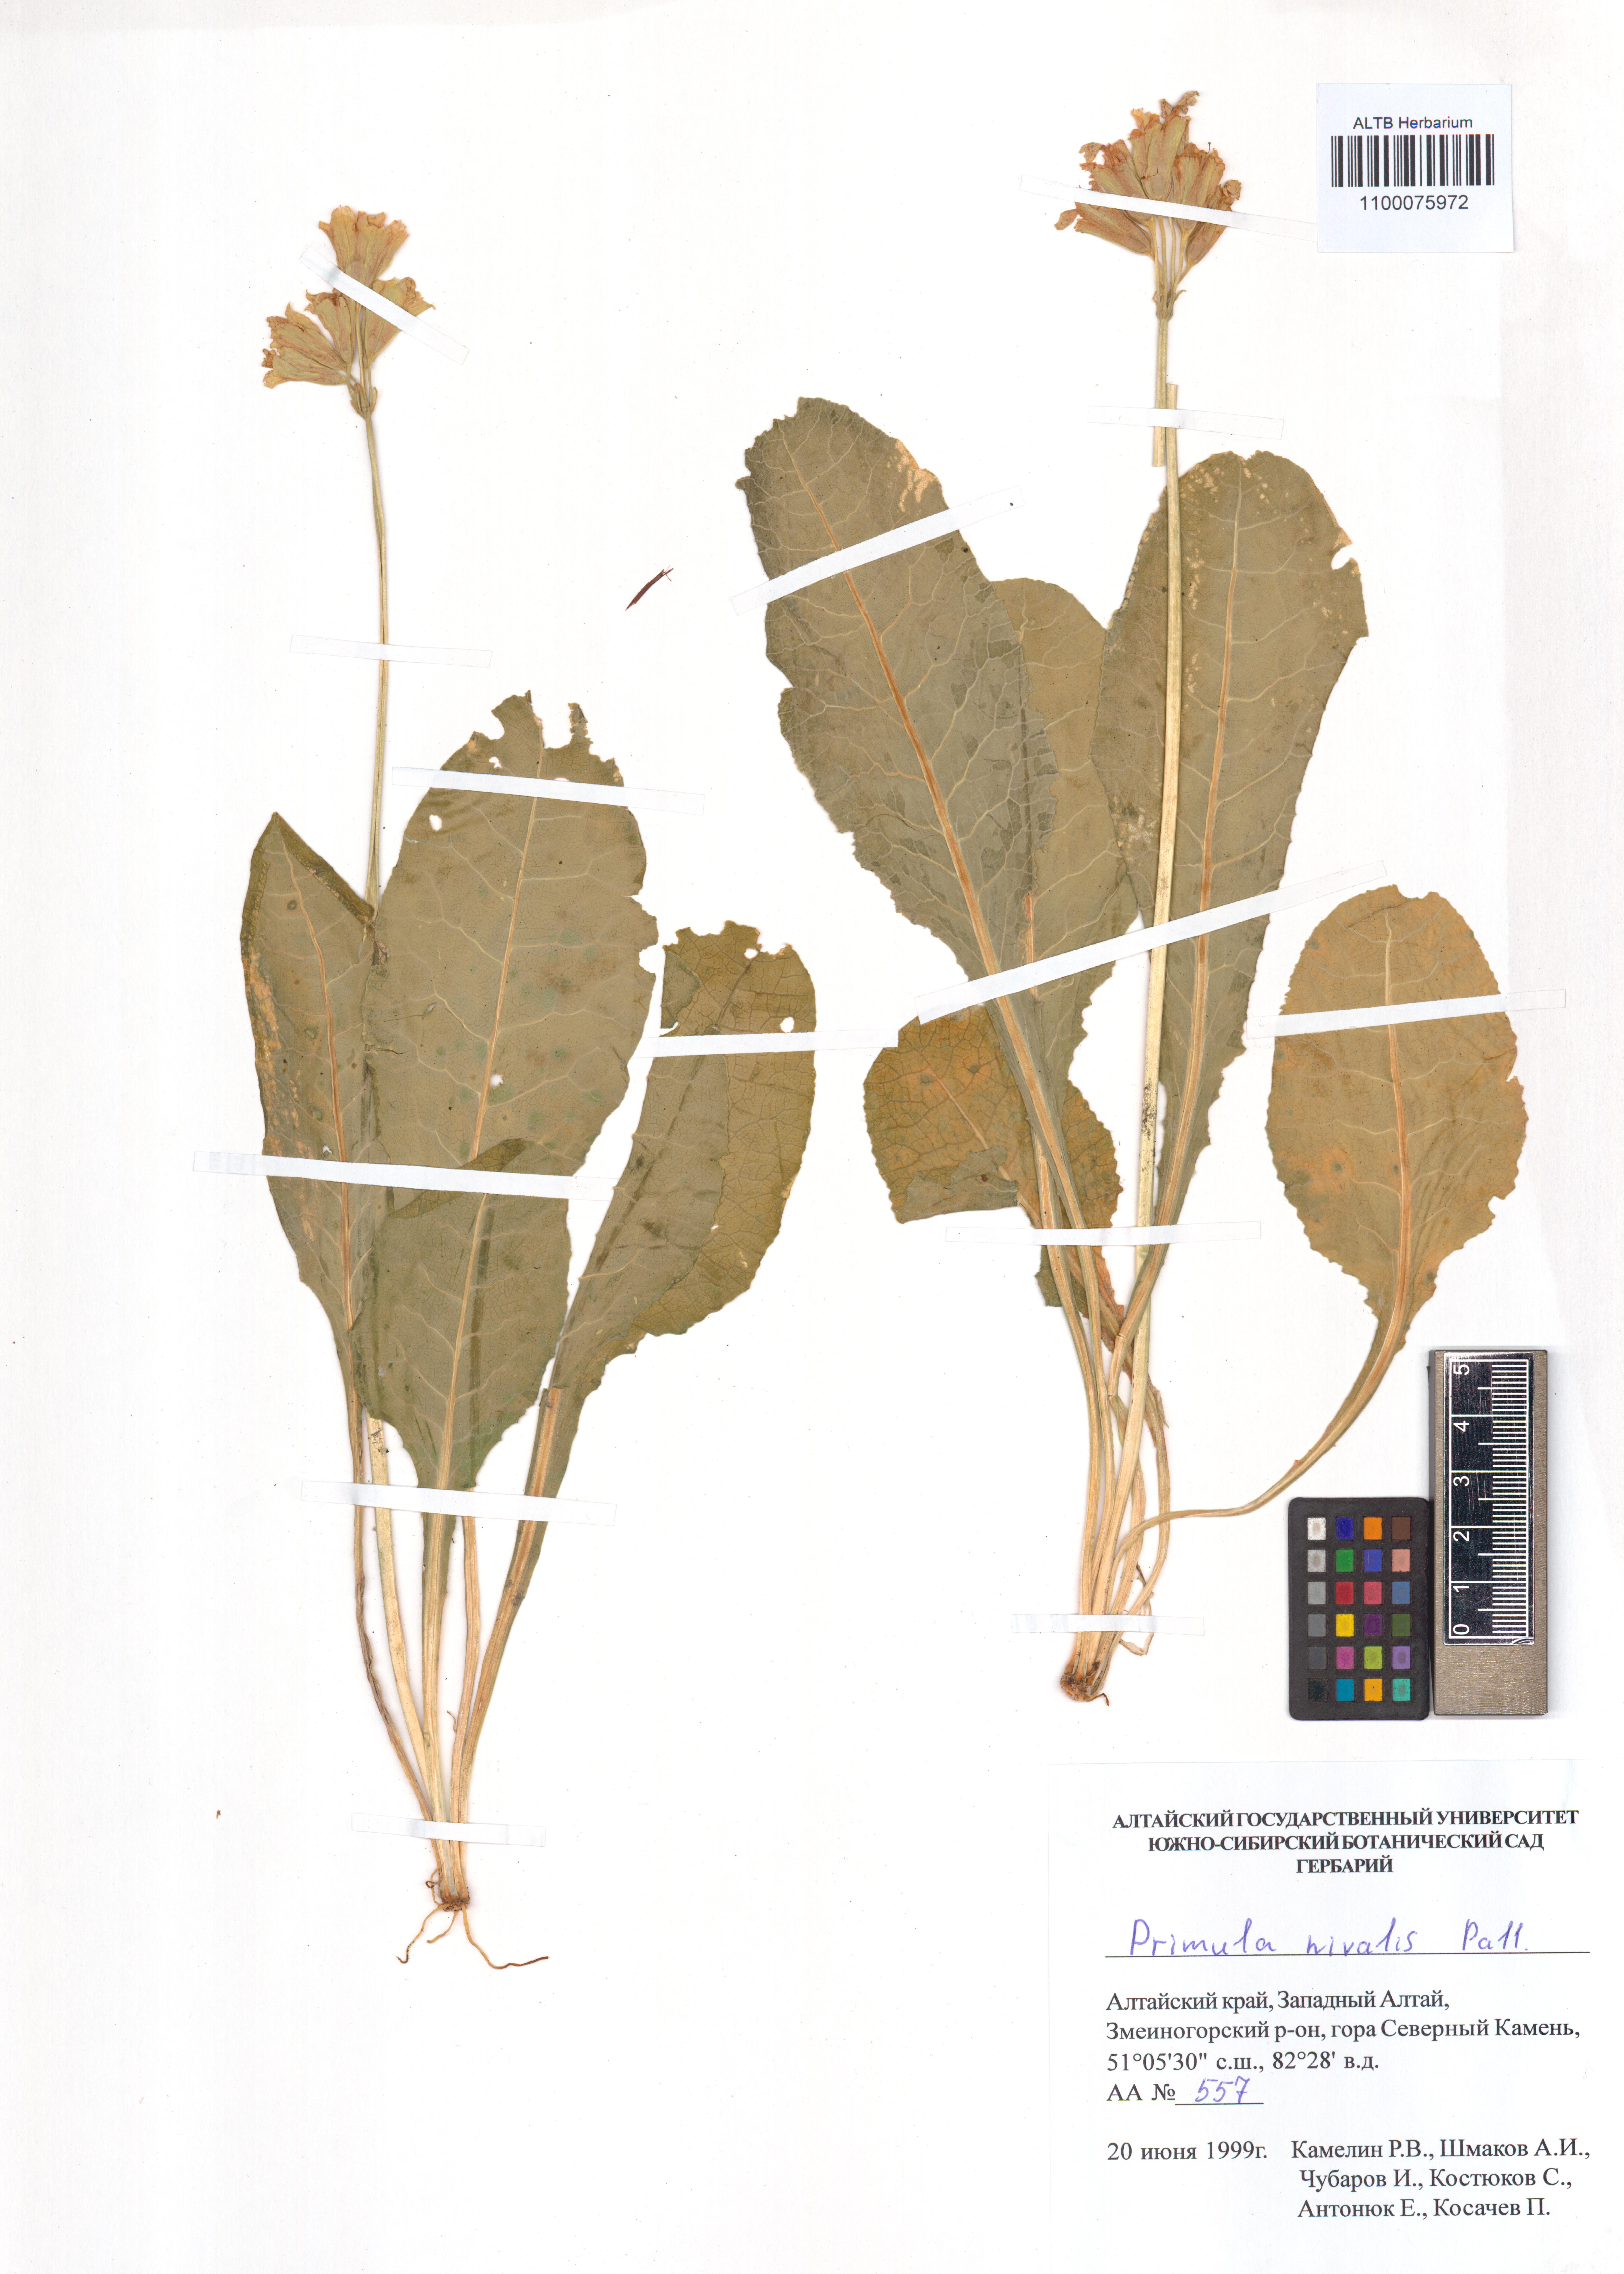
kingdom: Plantae
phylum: Tracheophyta
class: Magnoliopsida
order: Ericales
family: Primulaceae
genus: Primula
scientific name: Primula nivalis
